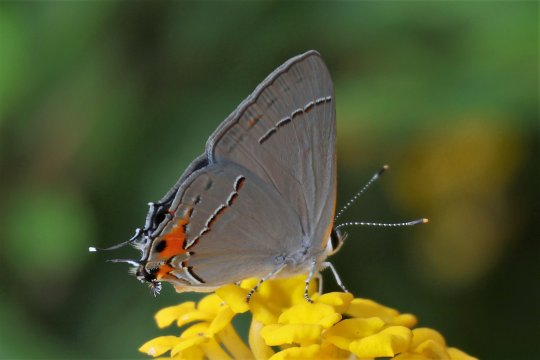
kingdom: Animalia
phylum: Arthropoda
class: Insecta
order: Lepidoptera
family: Lycaenidae
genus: Strymon
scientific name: Strymon melinus
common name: Gray Hairstreak
